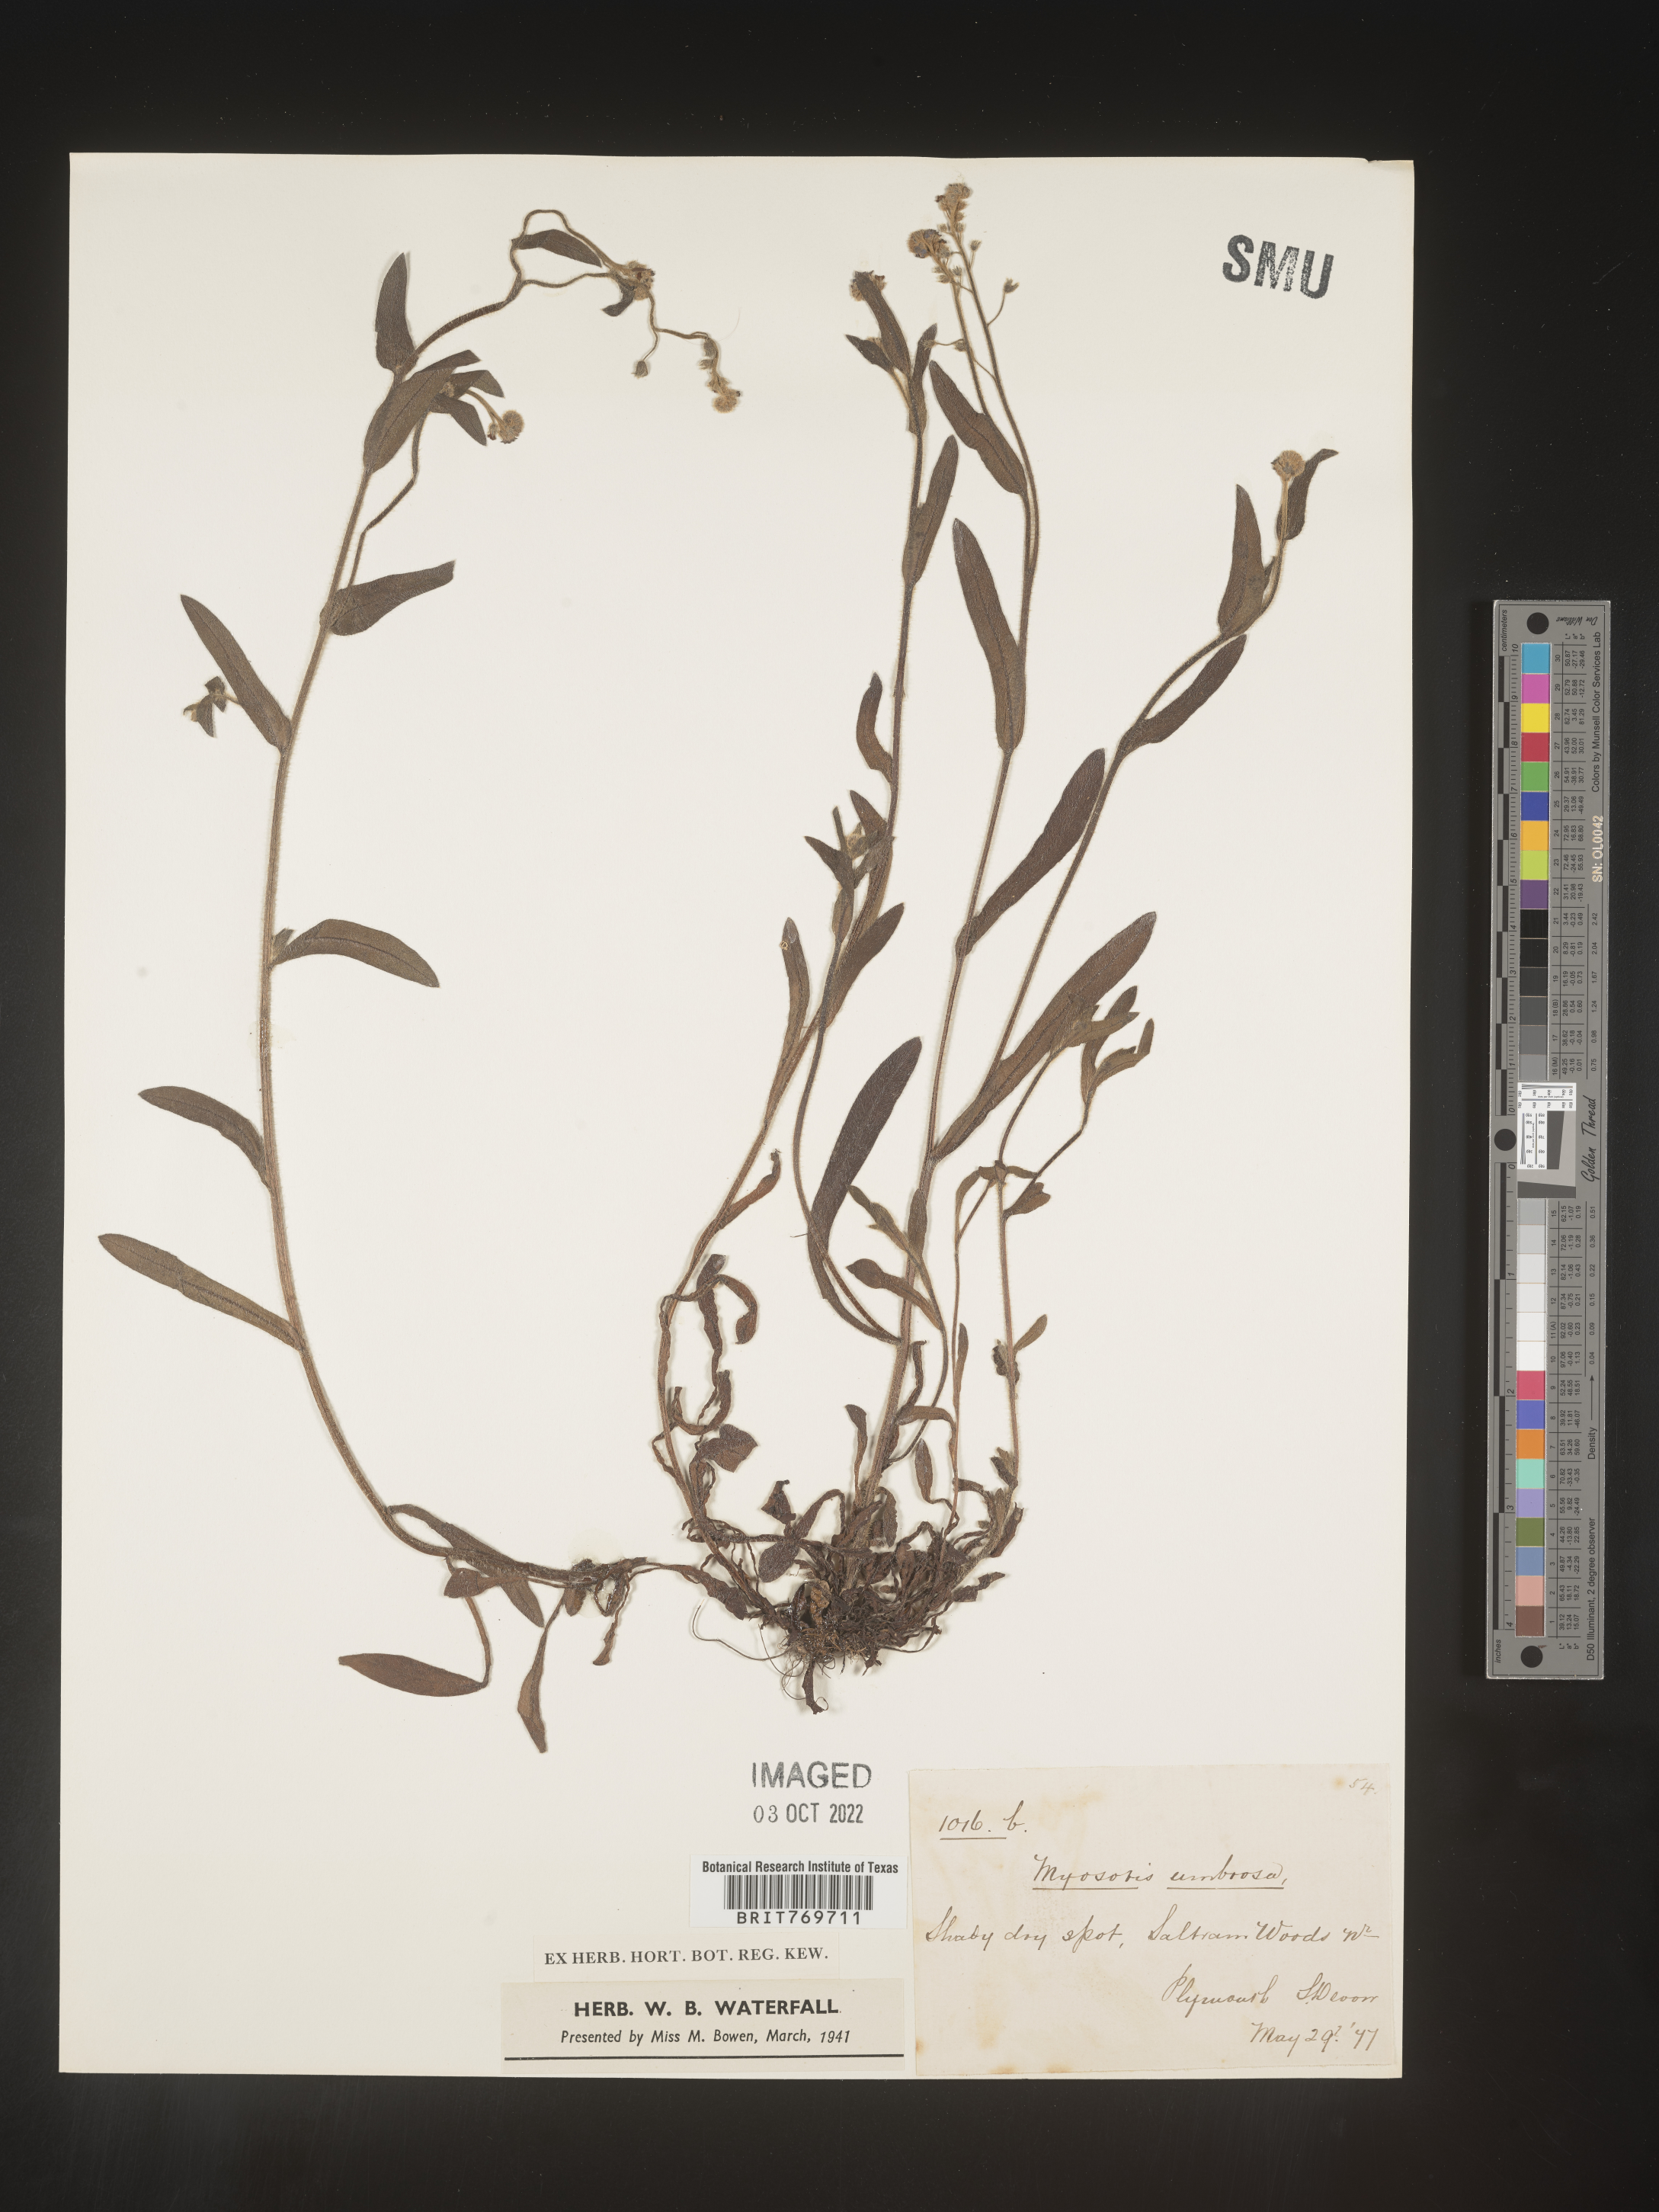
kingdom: Plantae
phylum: Tracheophyta
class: Magnoliopsida
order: Boraginales
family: Boraginaceae
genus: Myosotis
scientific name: Myosotis
